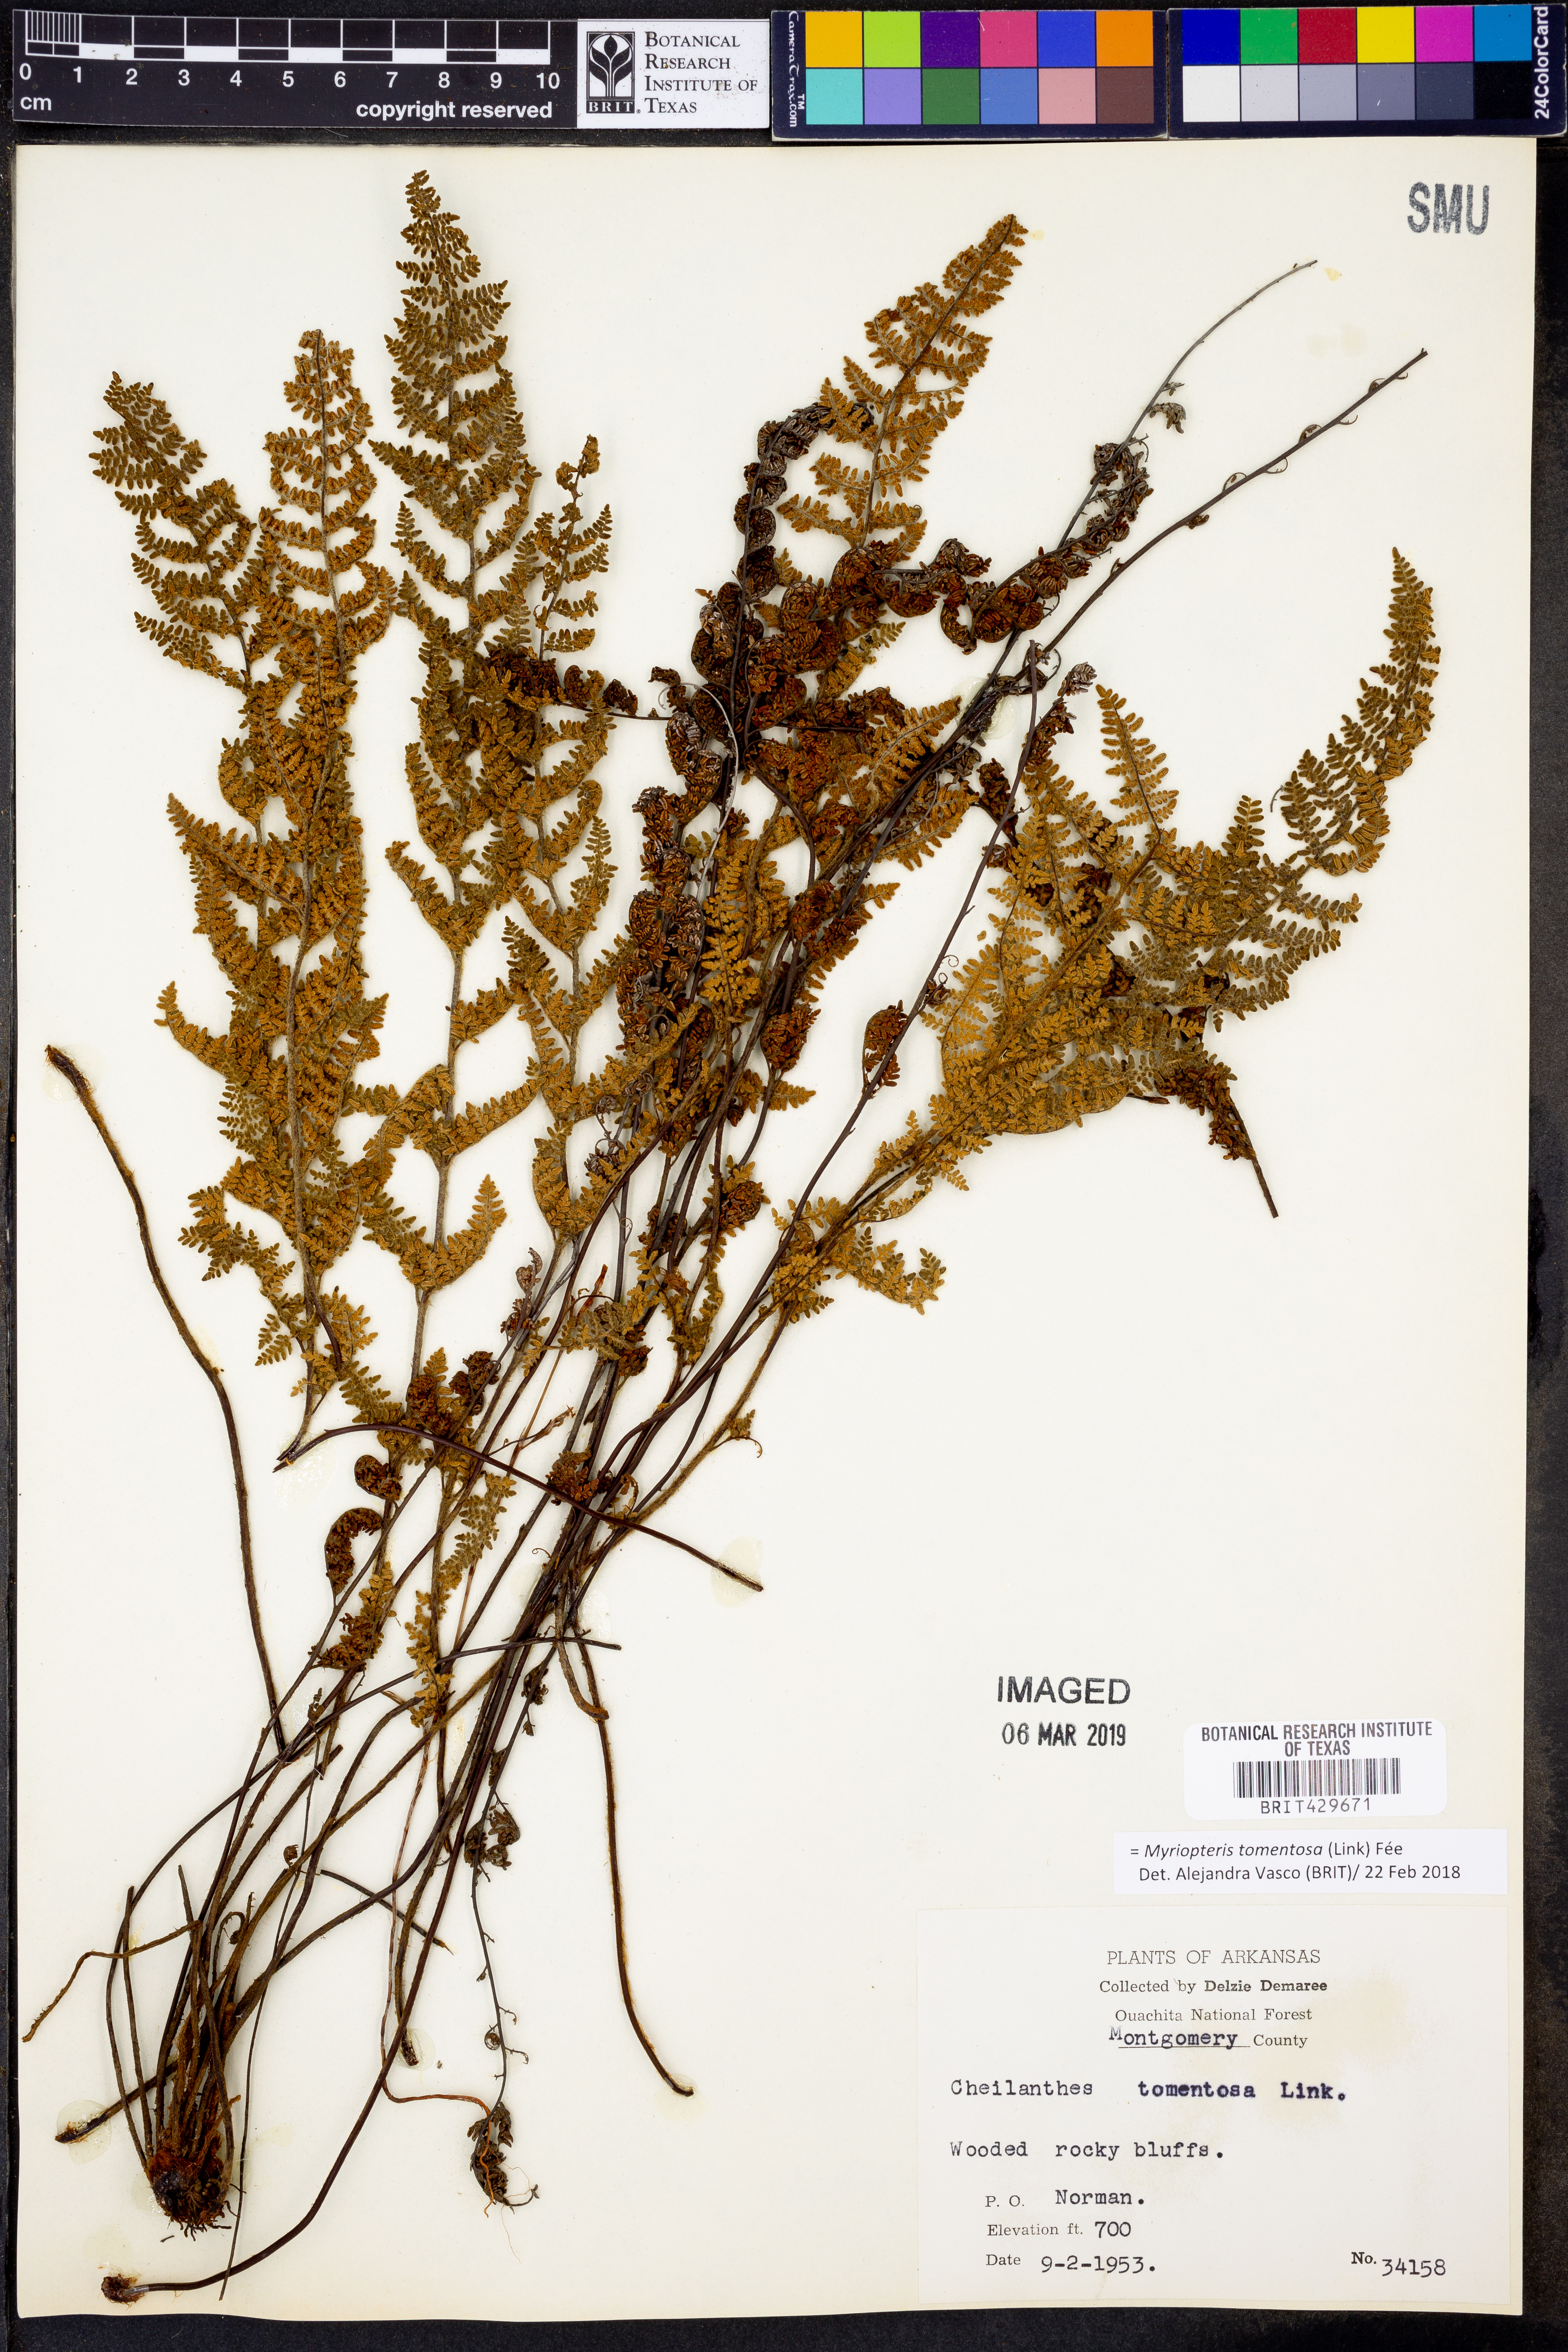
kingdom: Plantae
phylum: Tracheophyta
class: Polypodiopsida
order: Polypodiales
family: Pteridaceae
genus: Myriopteris
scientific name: Myriopteris tomentosa
